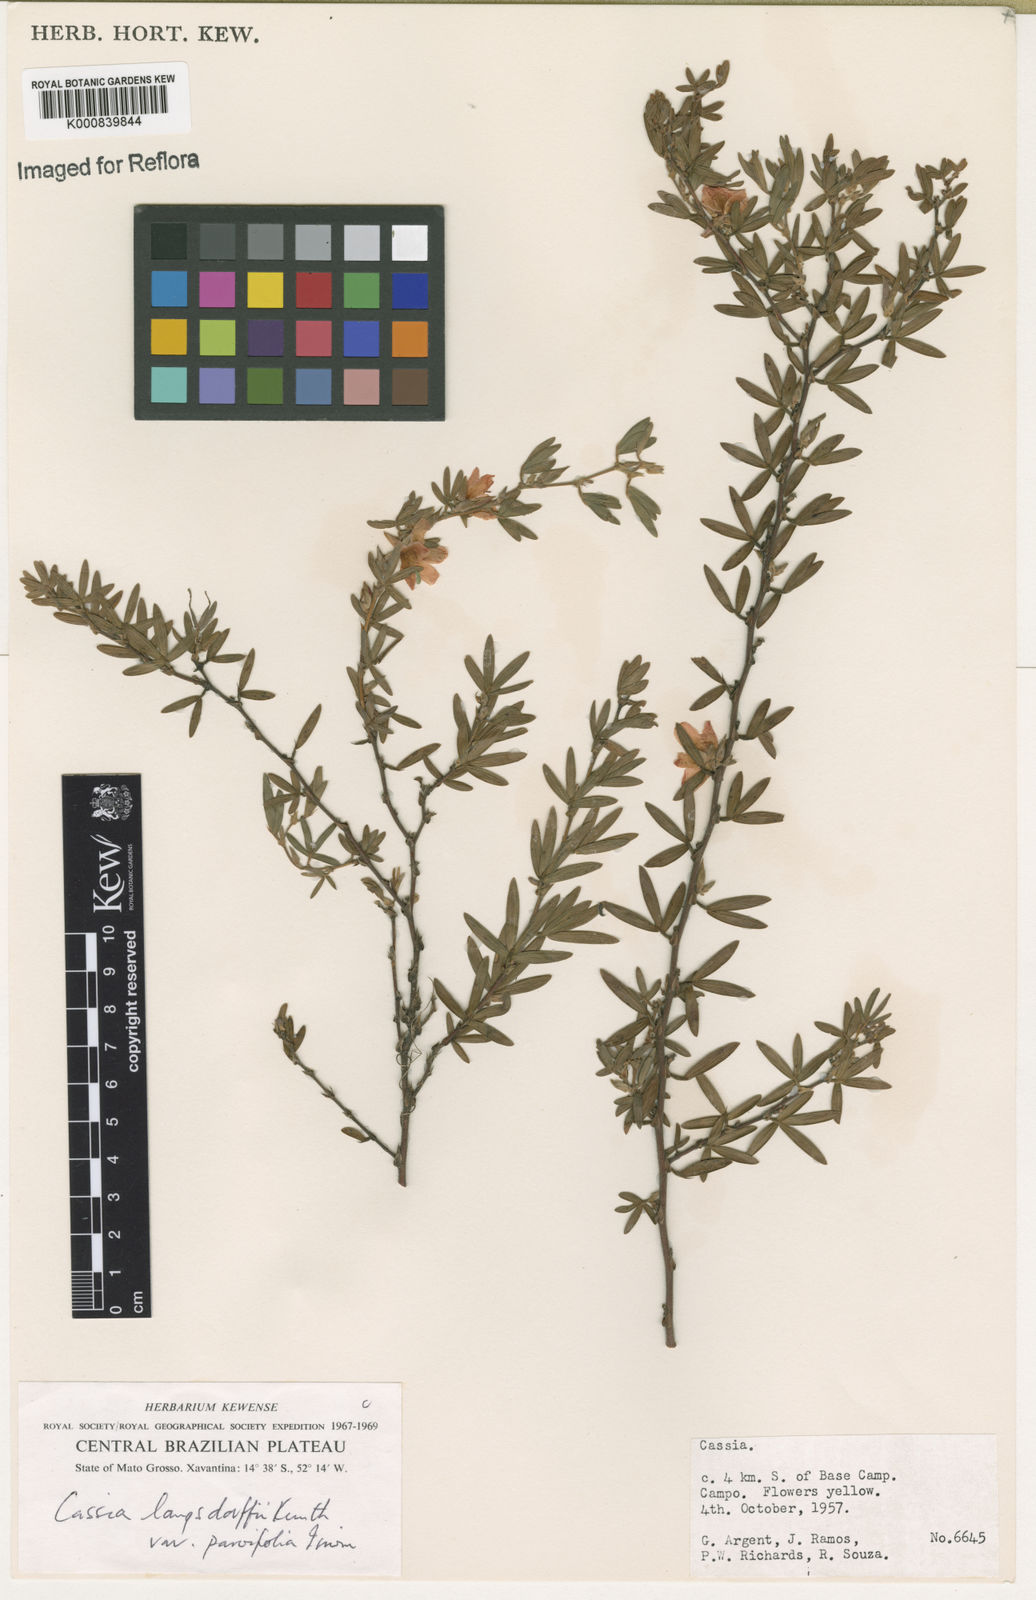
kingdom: Plantae
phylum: Tracheophyta
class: Magnoliopsida
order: Fabales
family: Fabaceae
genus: Chamaecrista
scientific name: Chamaecrista desvauxii
